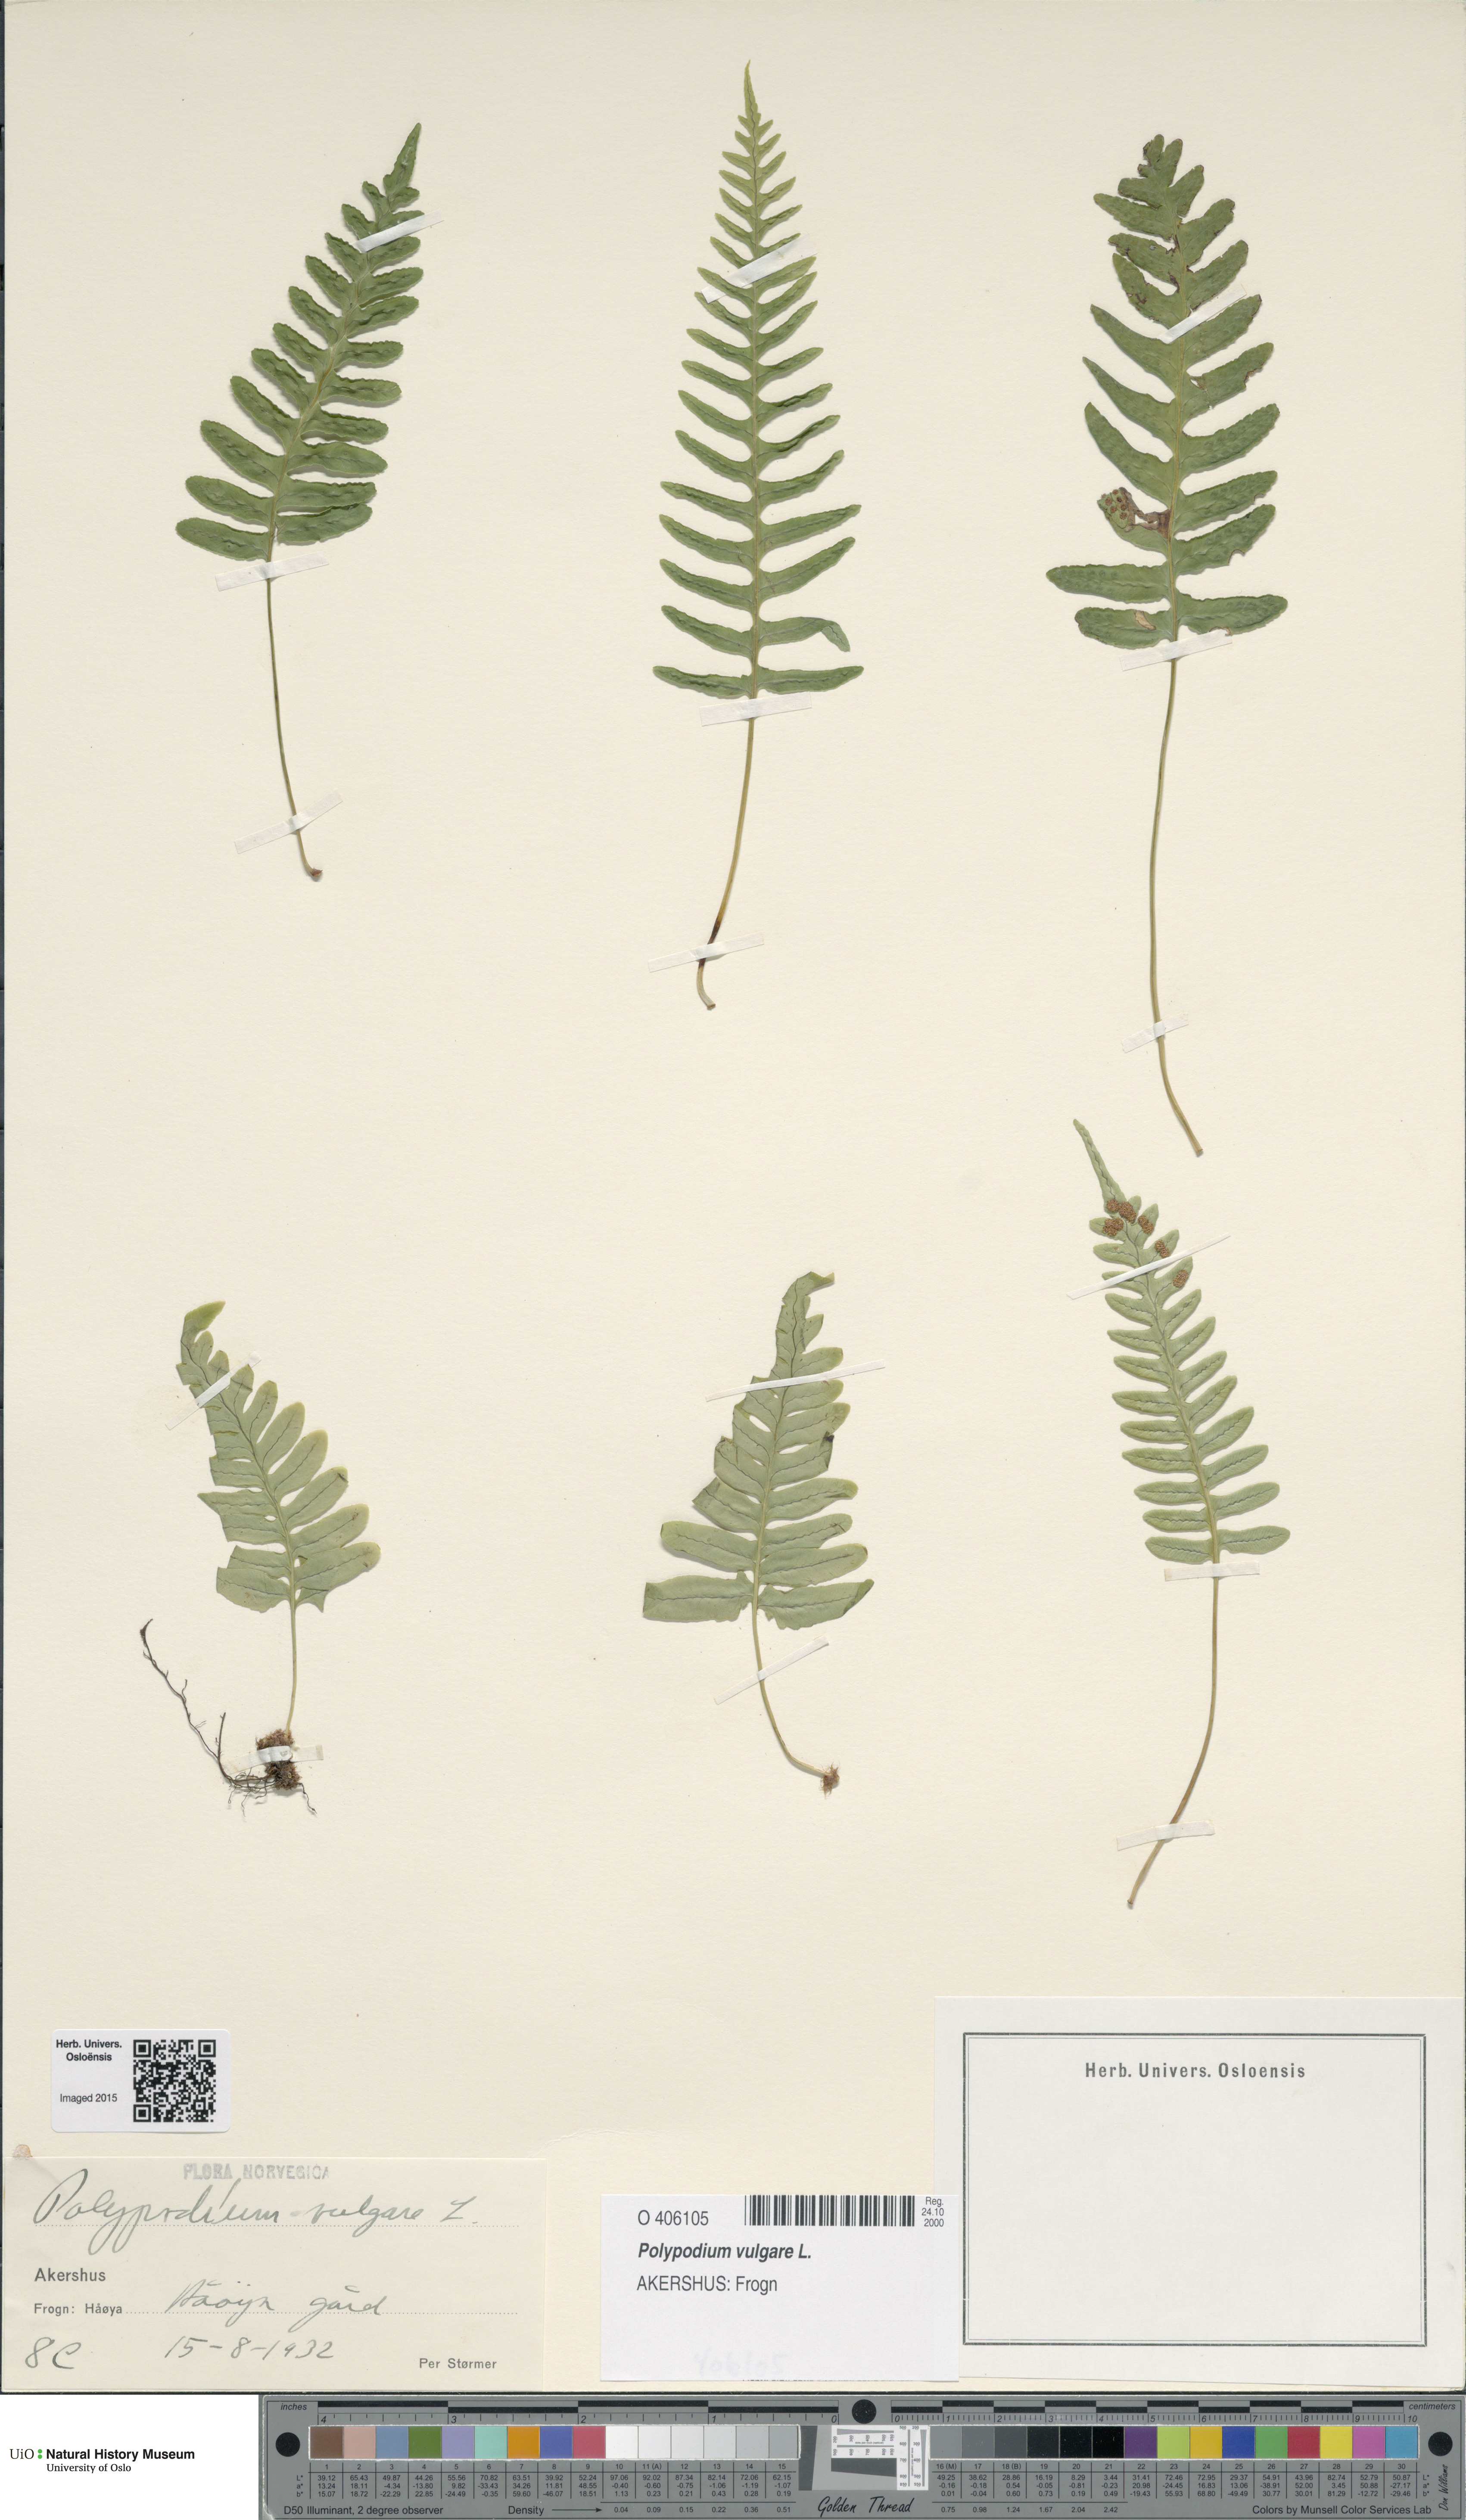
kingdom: Plantae
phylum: Tracheophyta
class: Polypodiopsida
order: Polypodiales
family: Polypodiaceae
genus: Polypodium
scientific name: Polypodium vulgare
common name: Common polypody
